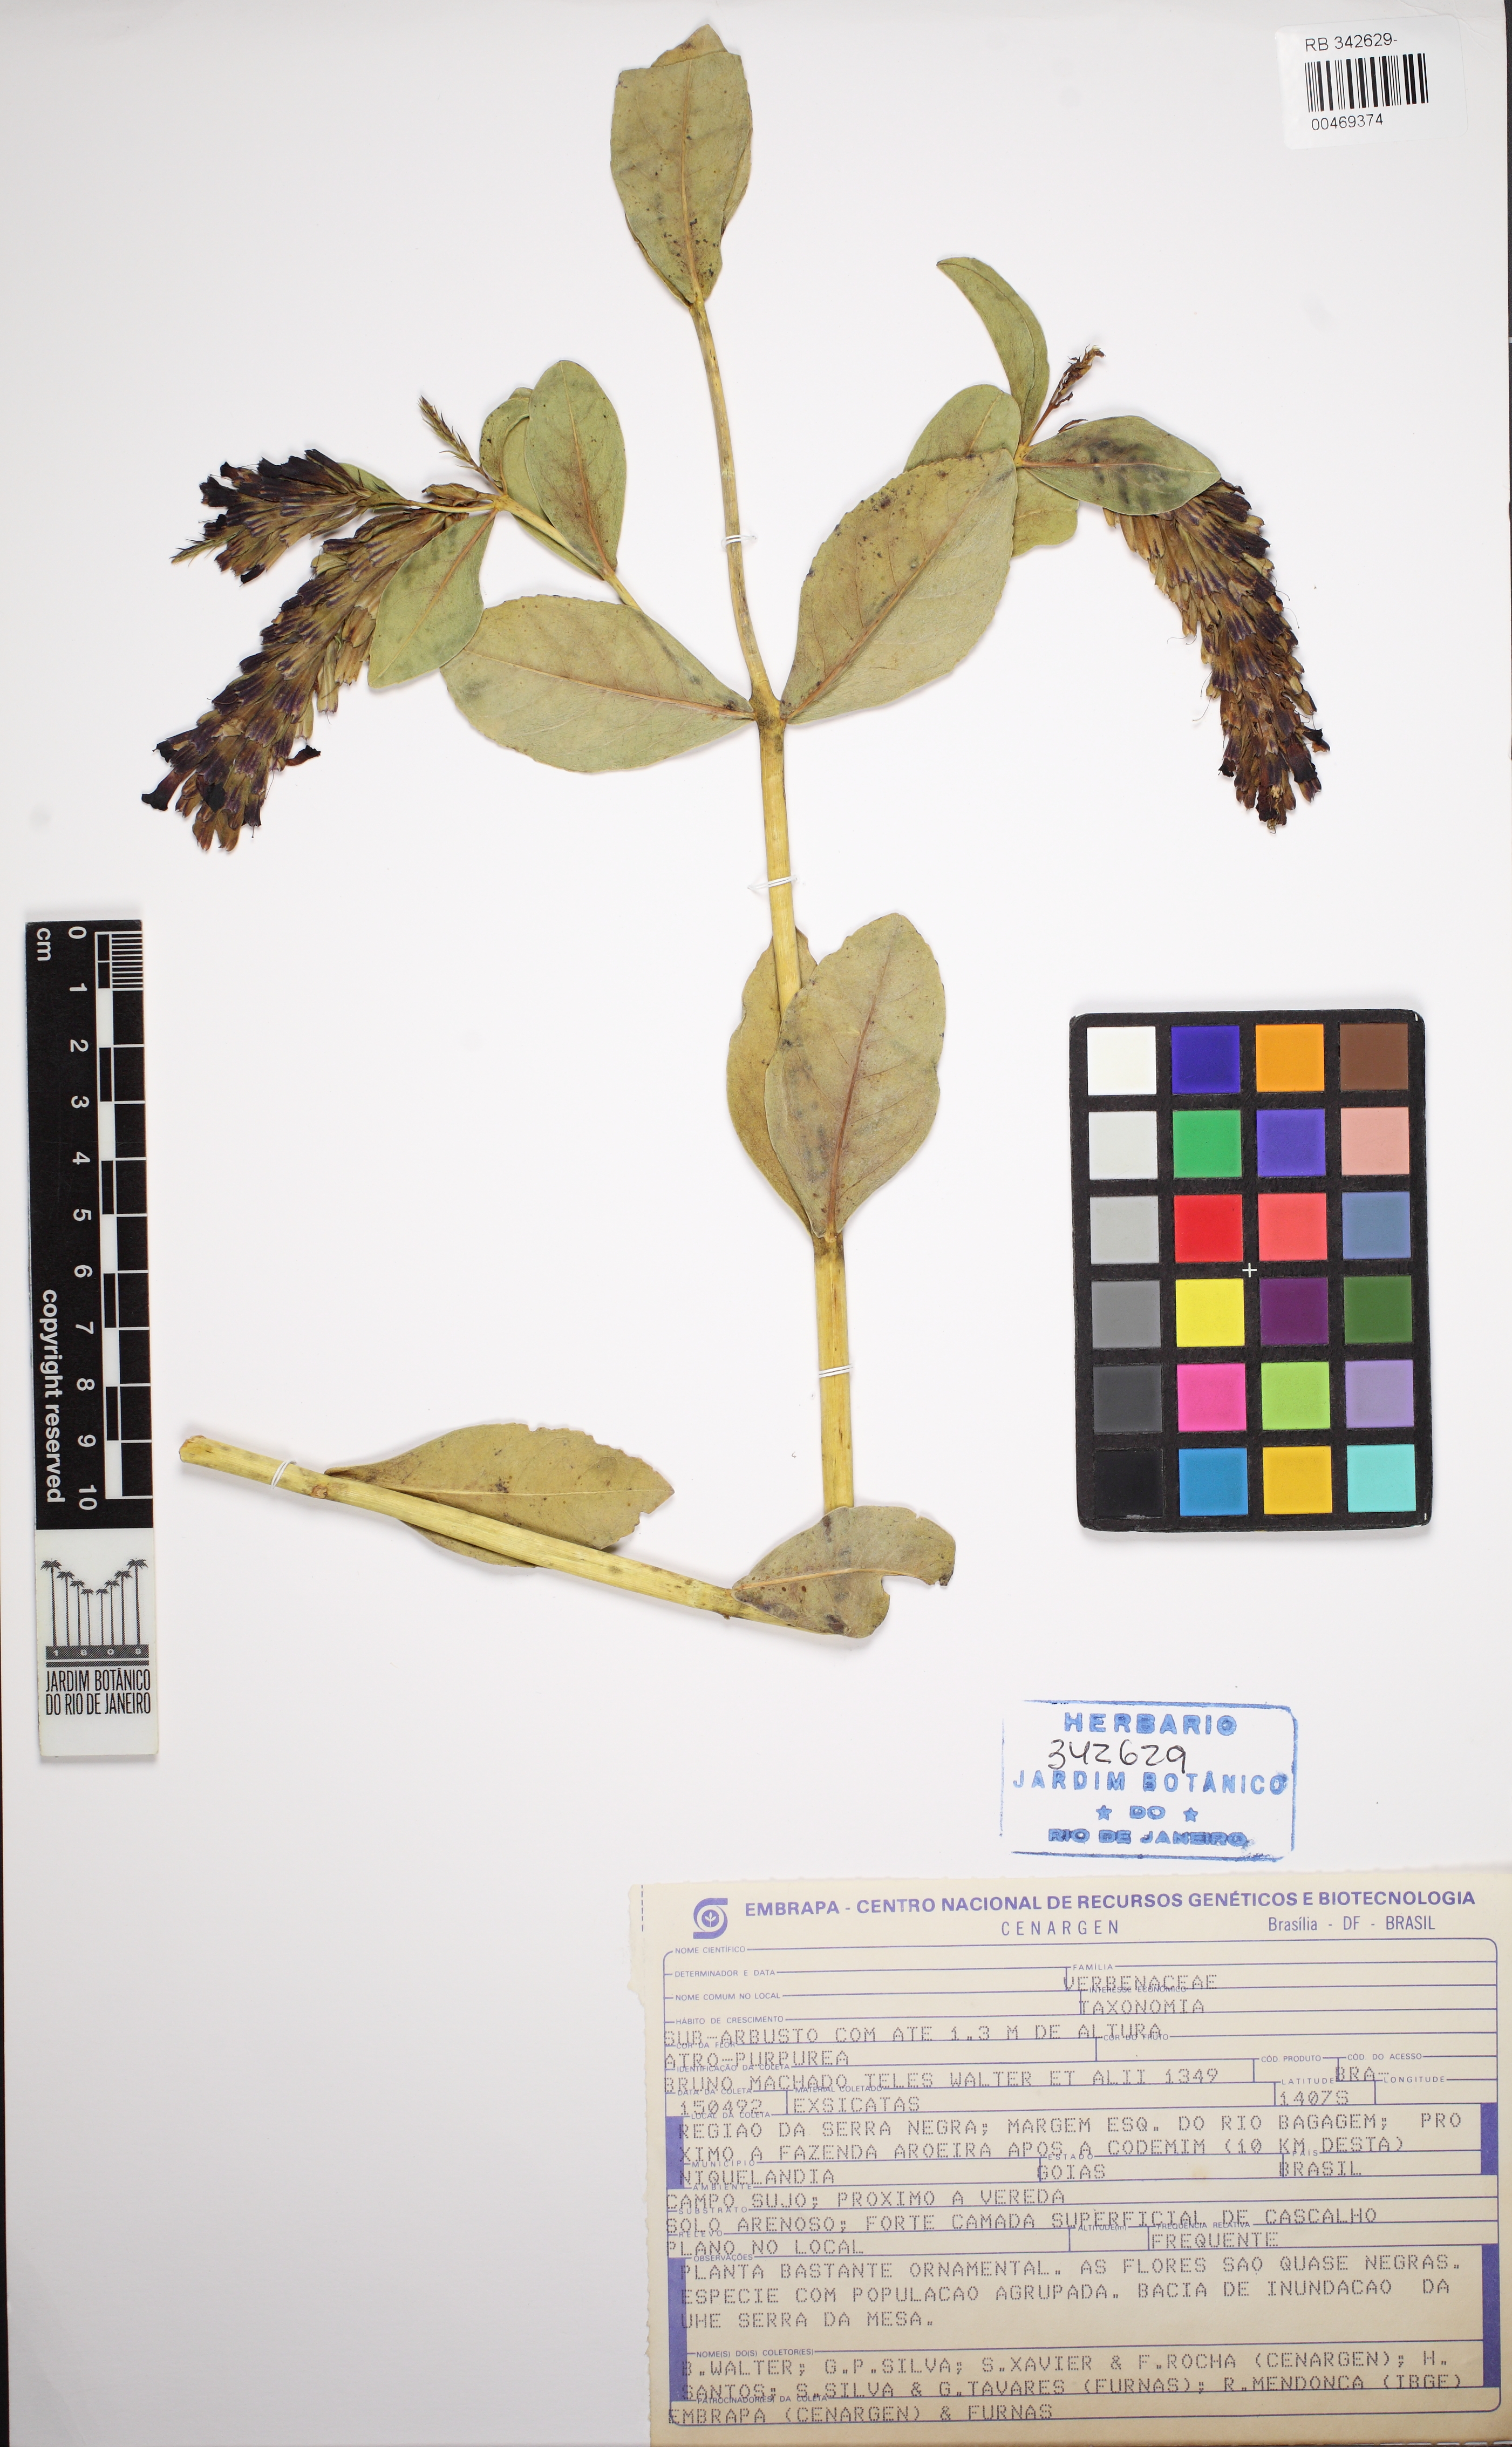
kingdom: Plantae
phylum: Tracheophyta
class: Magnoliopsida
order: Lamiales
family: Verbenaceae
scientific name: Verbenaceae
